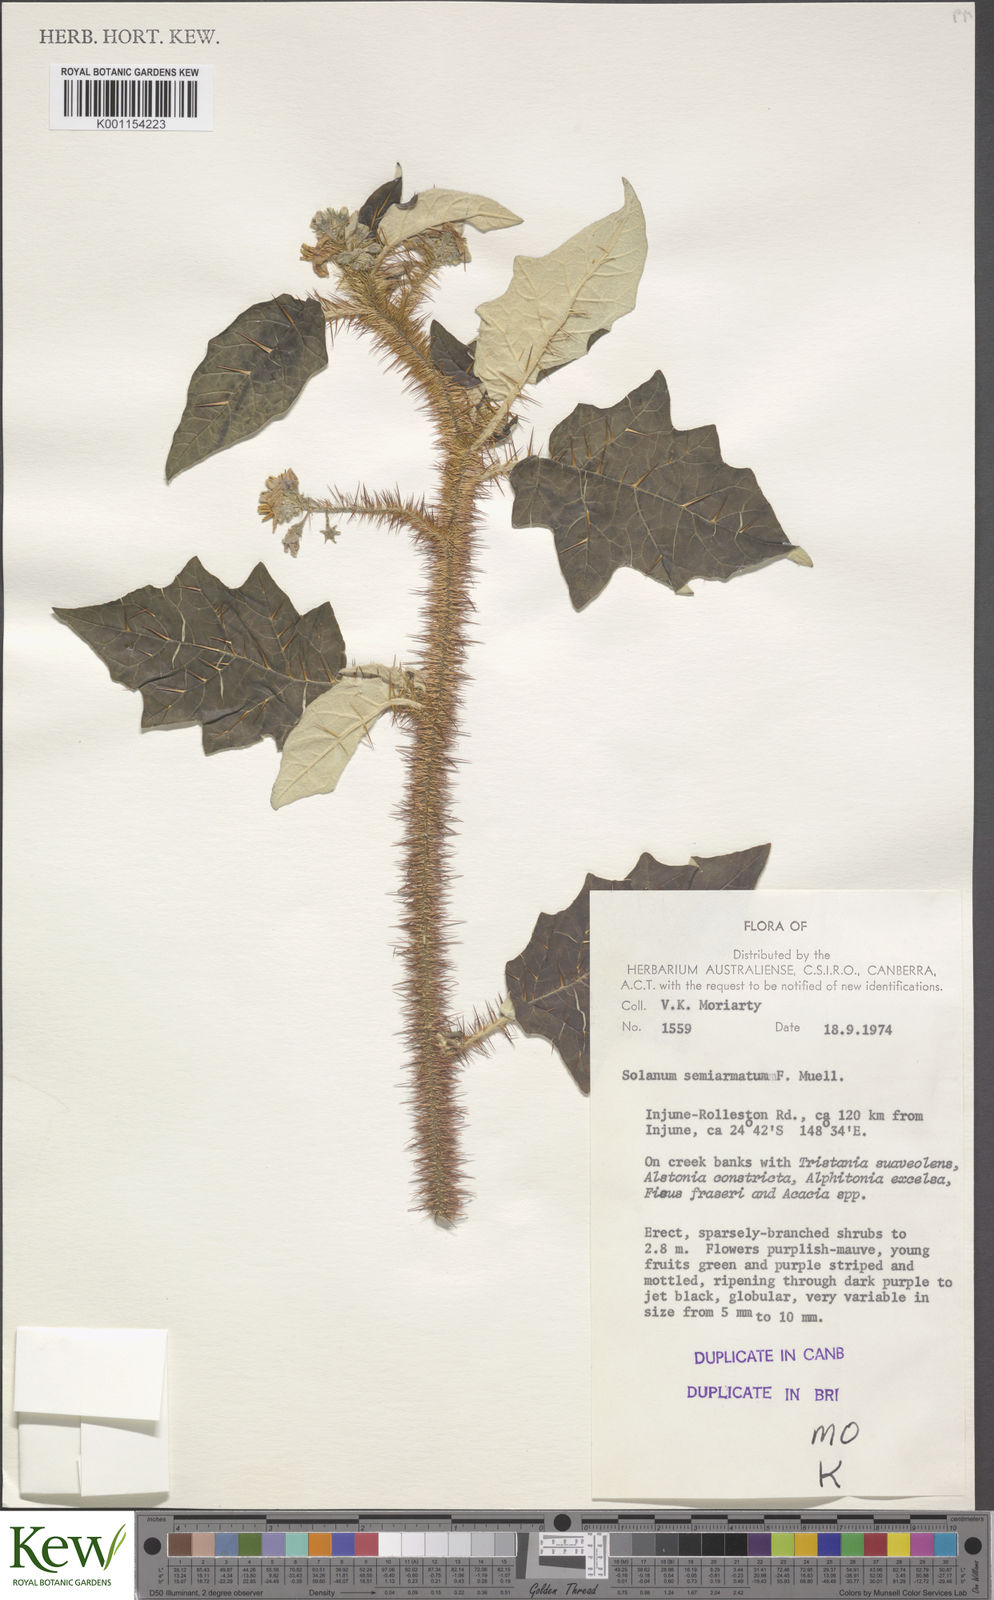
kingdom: Plantae
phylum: Tracheophyta
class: Magnoliopsida
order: Solanales
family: Solanaceae
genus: Solanum
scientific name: Solanum semiarmatum
